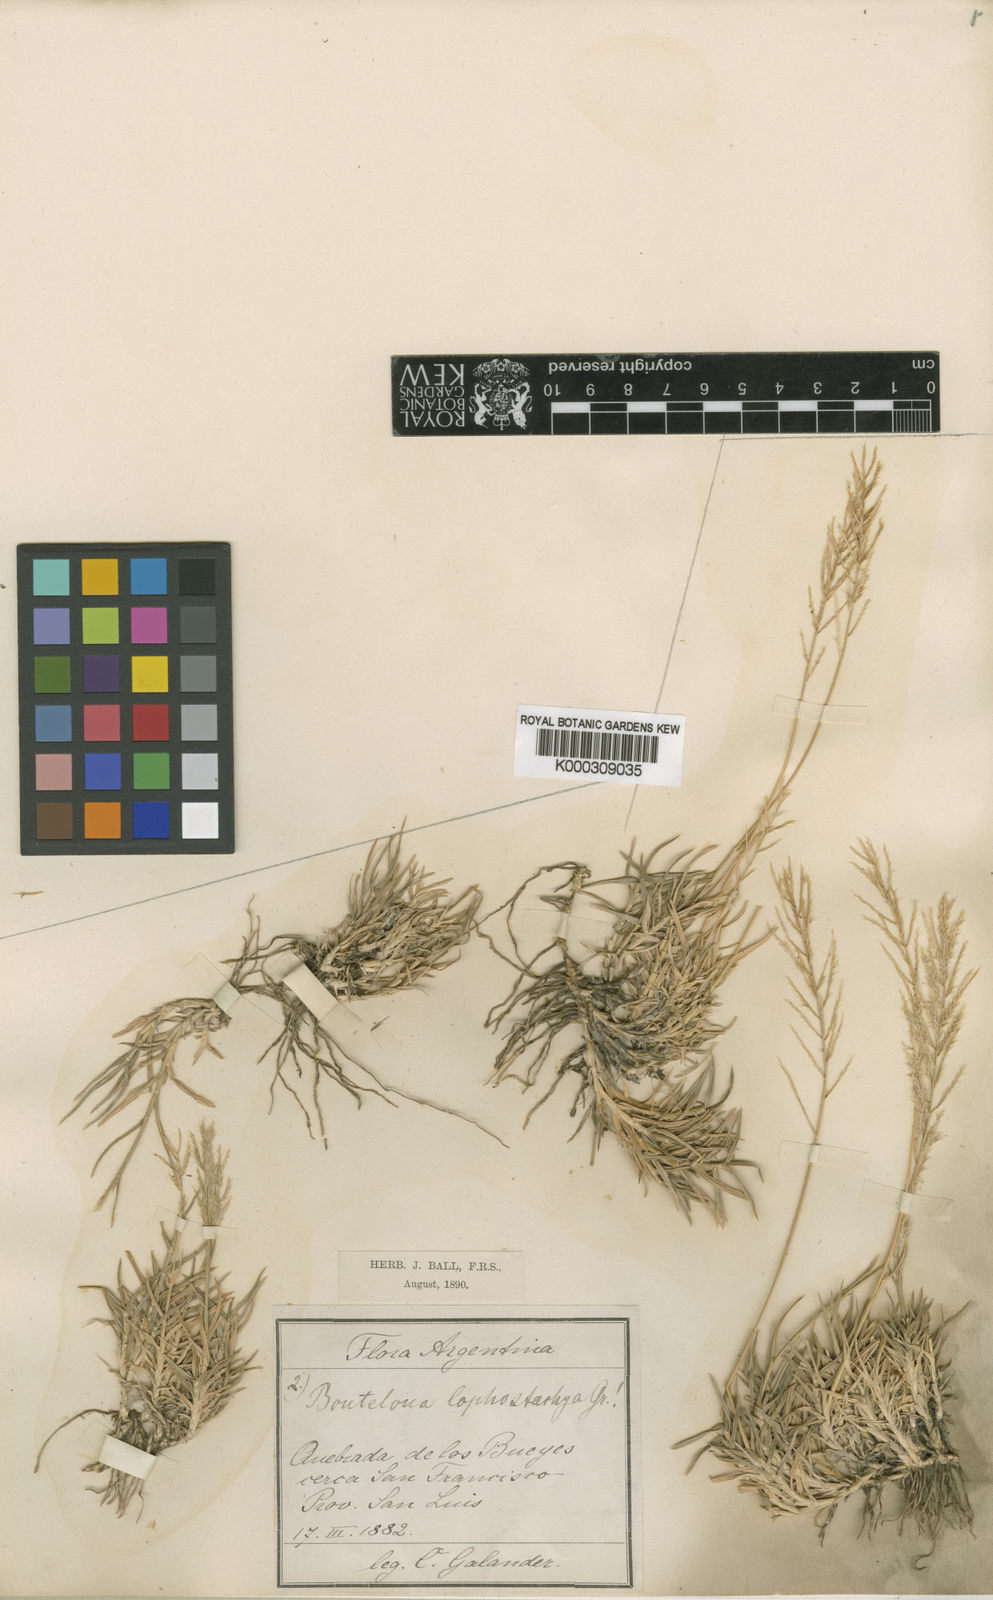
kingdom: Plantae
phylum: Tracheophyta
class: Liliopsida
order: Poales
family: Poaceae
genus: Neobouteloua
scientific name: Neobouteloua lophostachya
